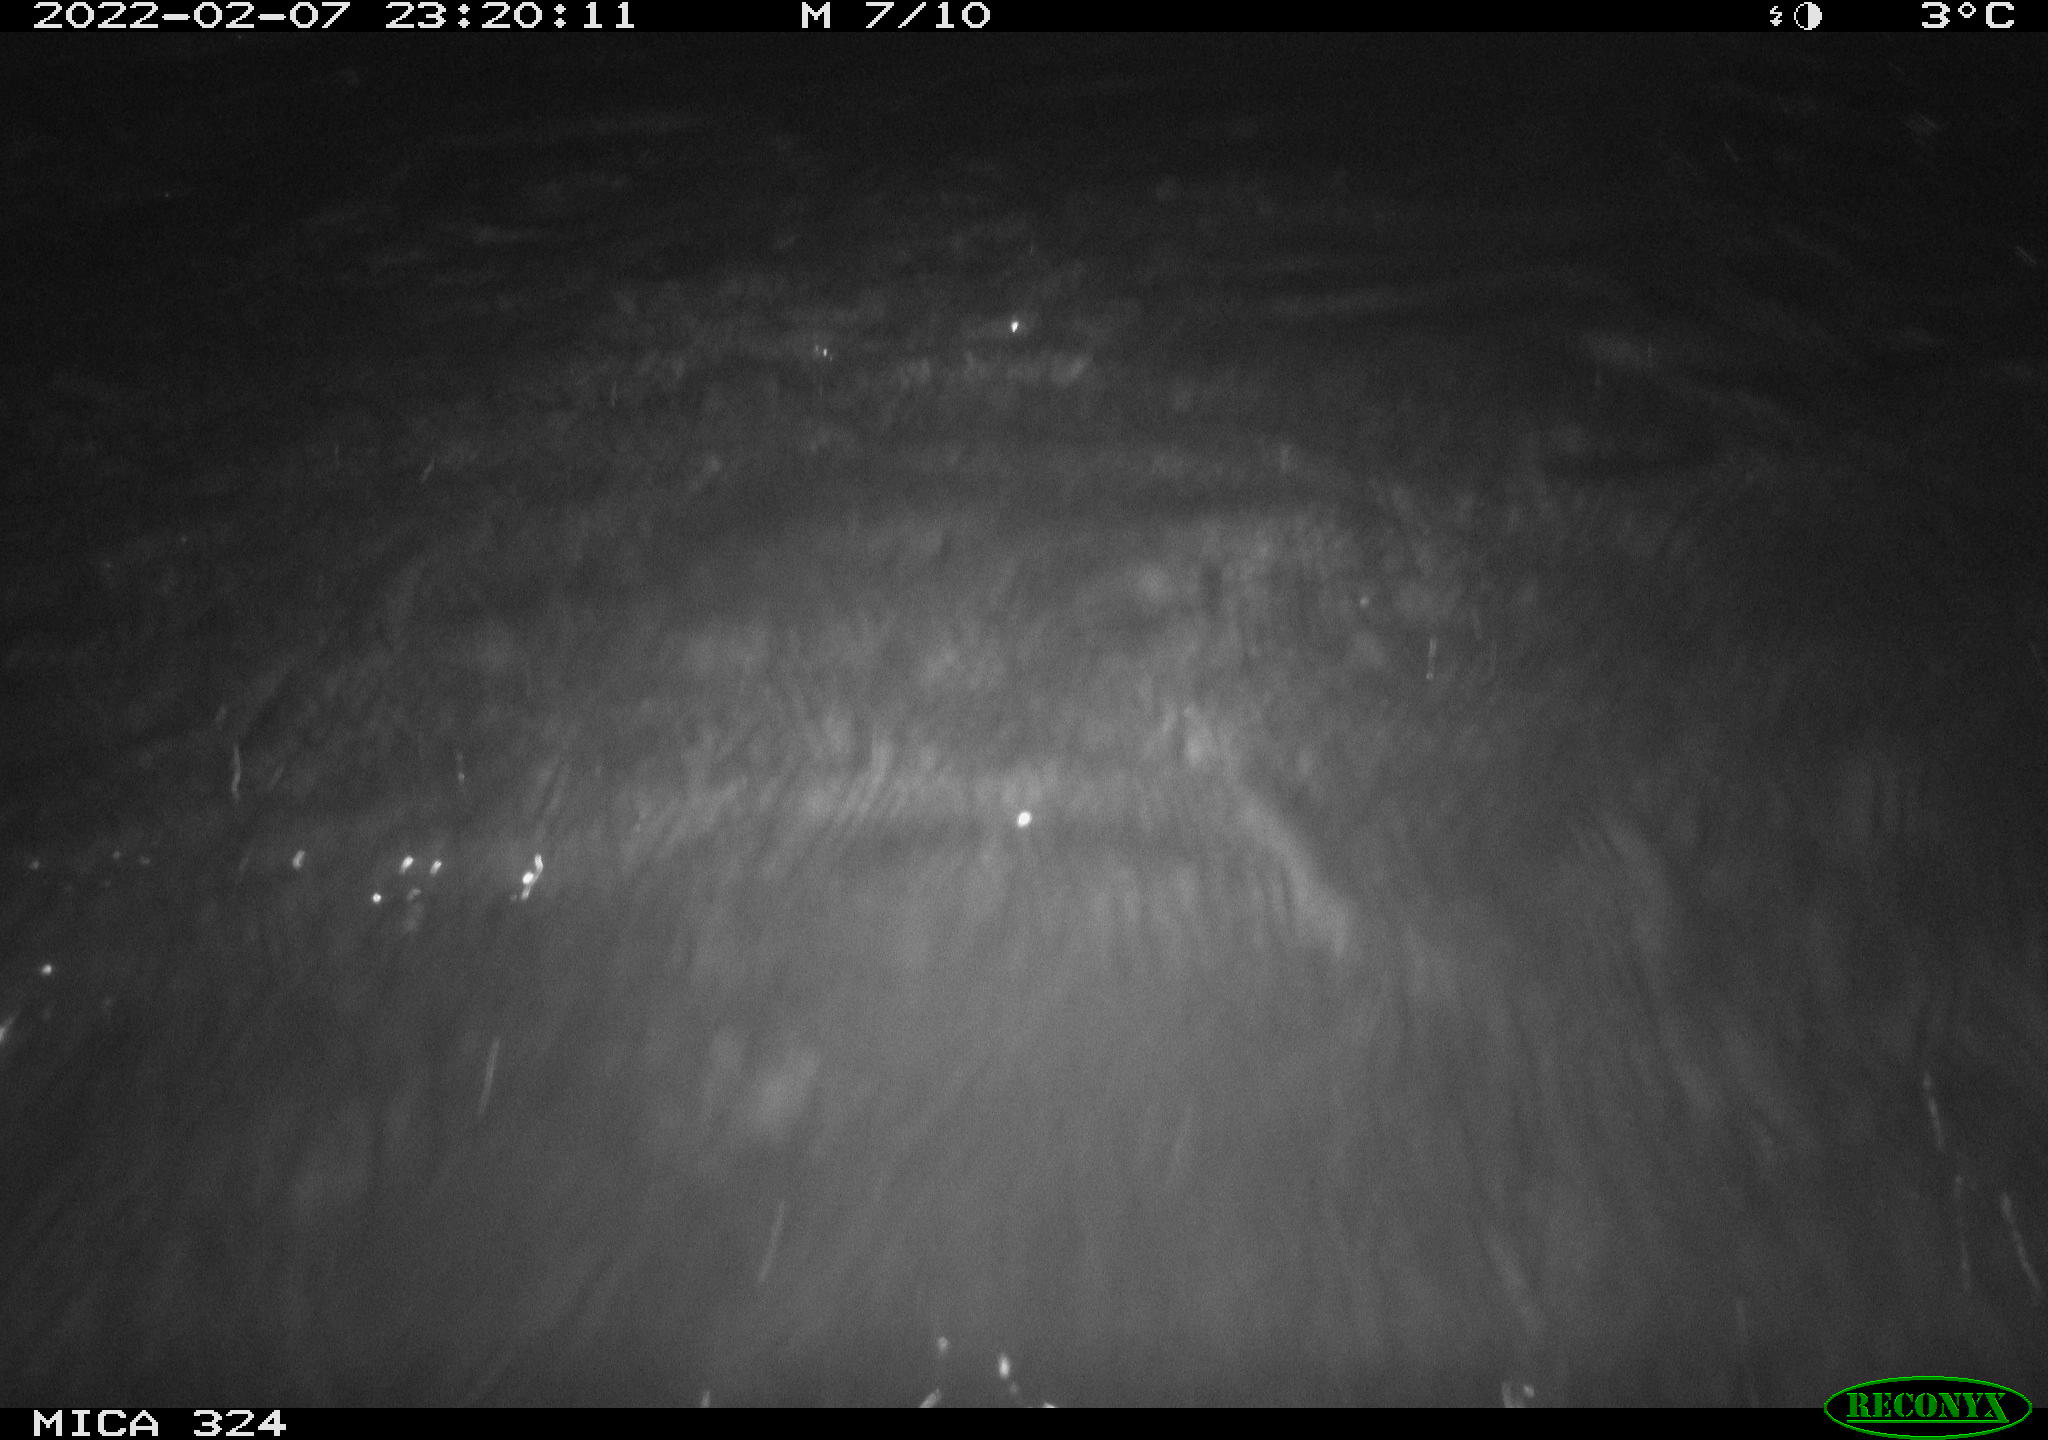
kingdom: Animalia
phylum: Chordata
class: Mammalia
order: Rodentia
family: Cricetidae
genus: Ondatra
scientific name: Ondatra zibethicus
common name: Muskrat
